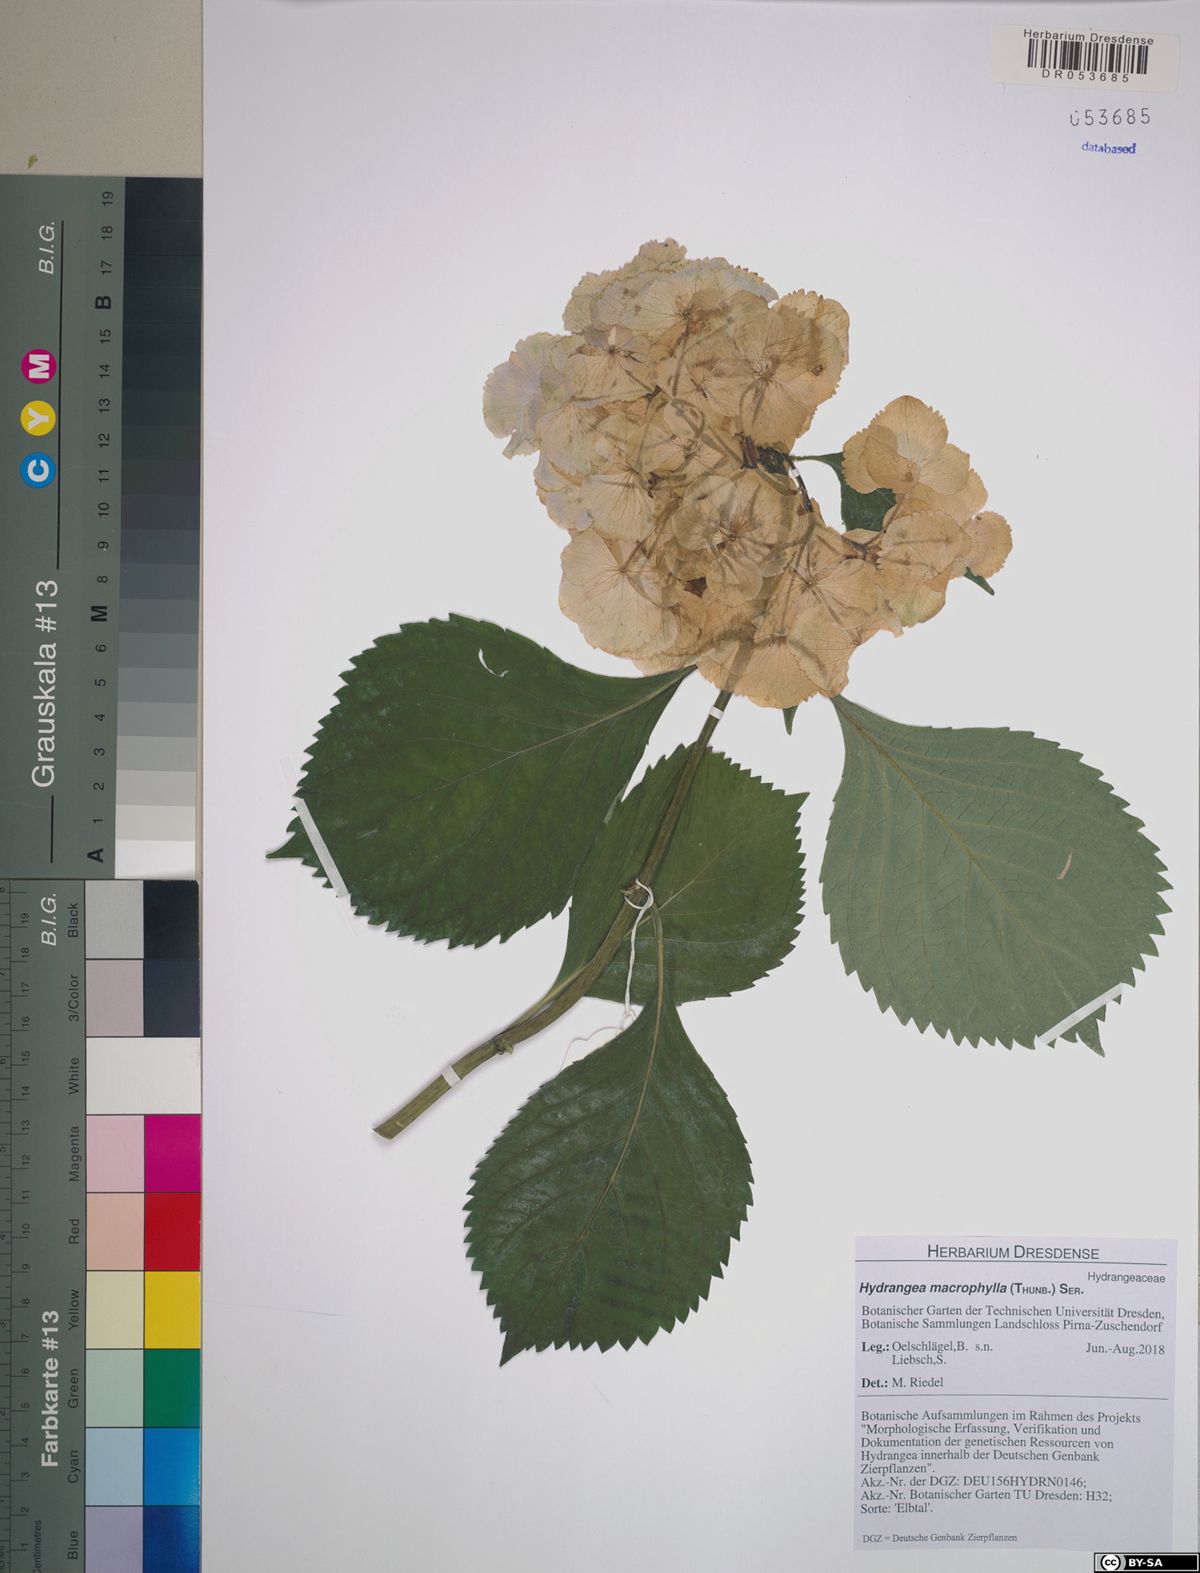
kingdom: Plantae
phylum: Tracheophyta
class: Magnoliopsida
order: Cornales
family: Hydrangeaceae
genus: Hydrangea
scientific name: Hydrangea macrophylla
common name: Hydrangea
